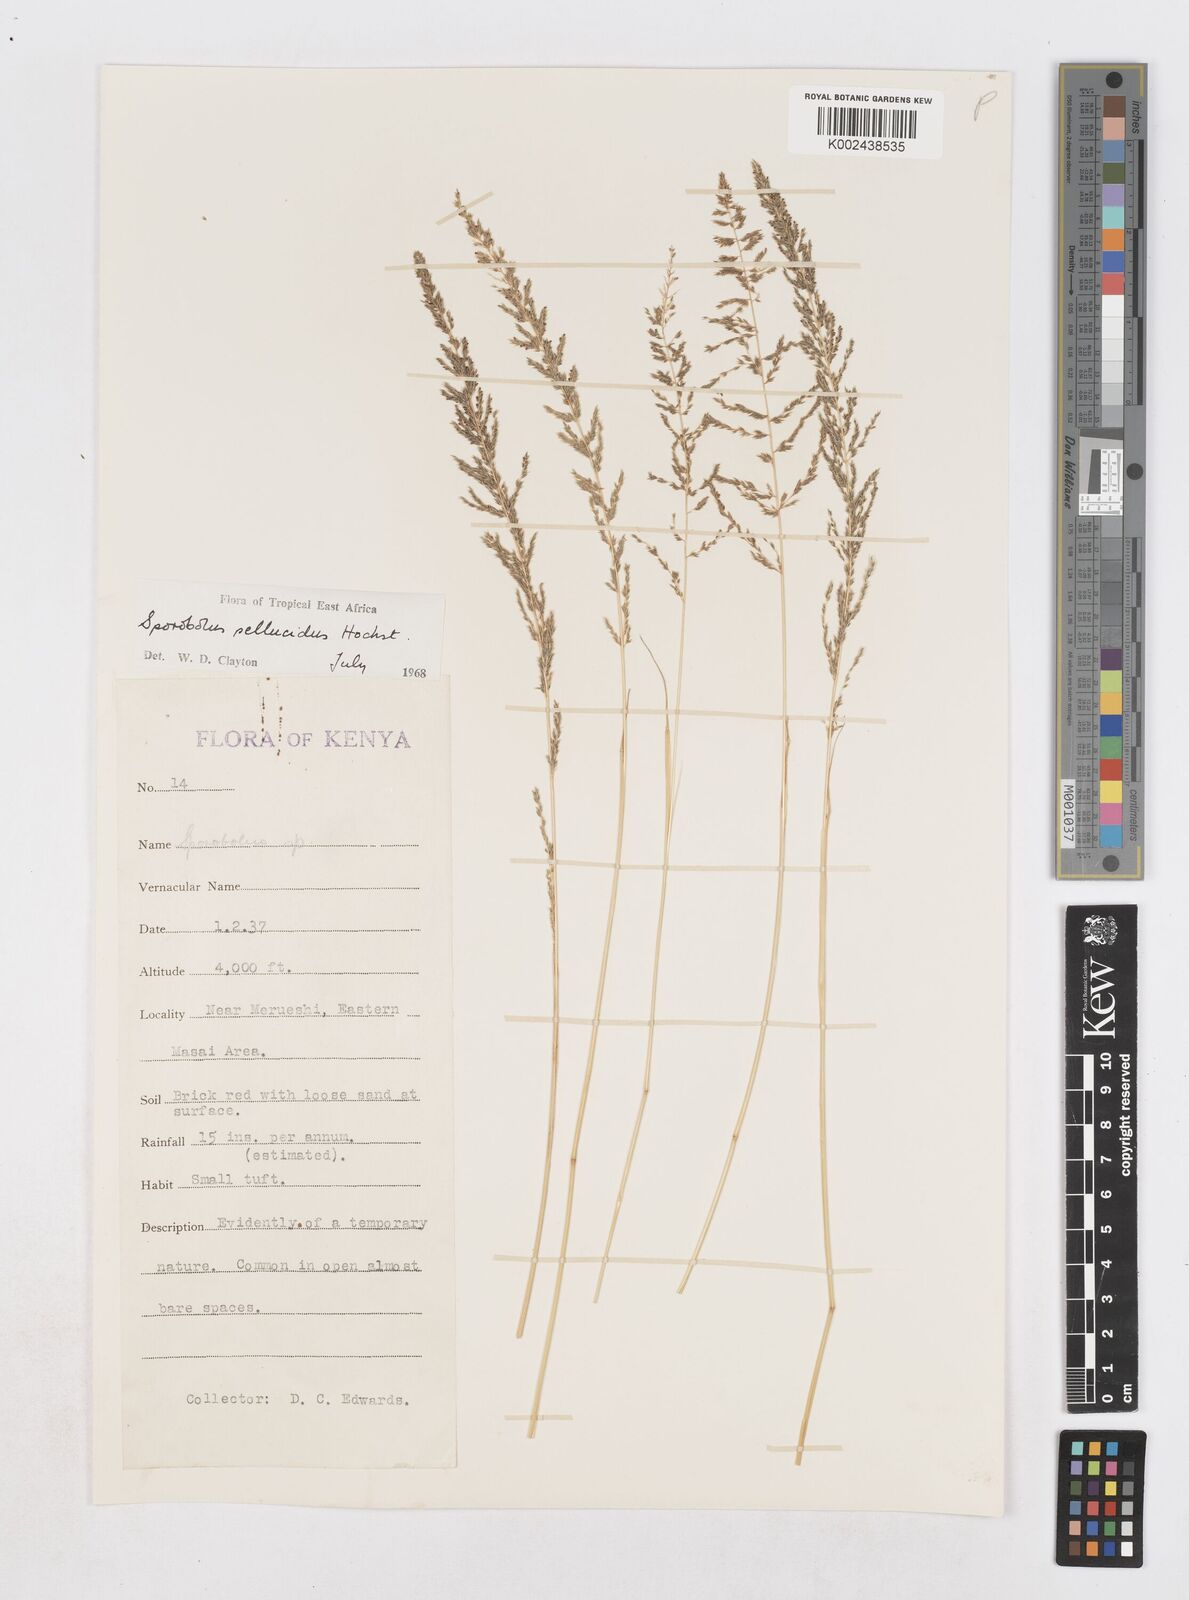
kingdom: Plantae
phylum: Tracheophyta
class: Liliopsida
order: Poales
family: Poaceae
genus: Sporobolus
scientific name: Sporobolus pellucidus
